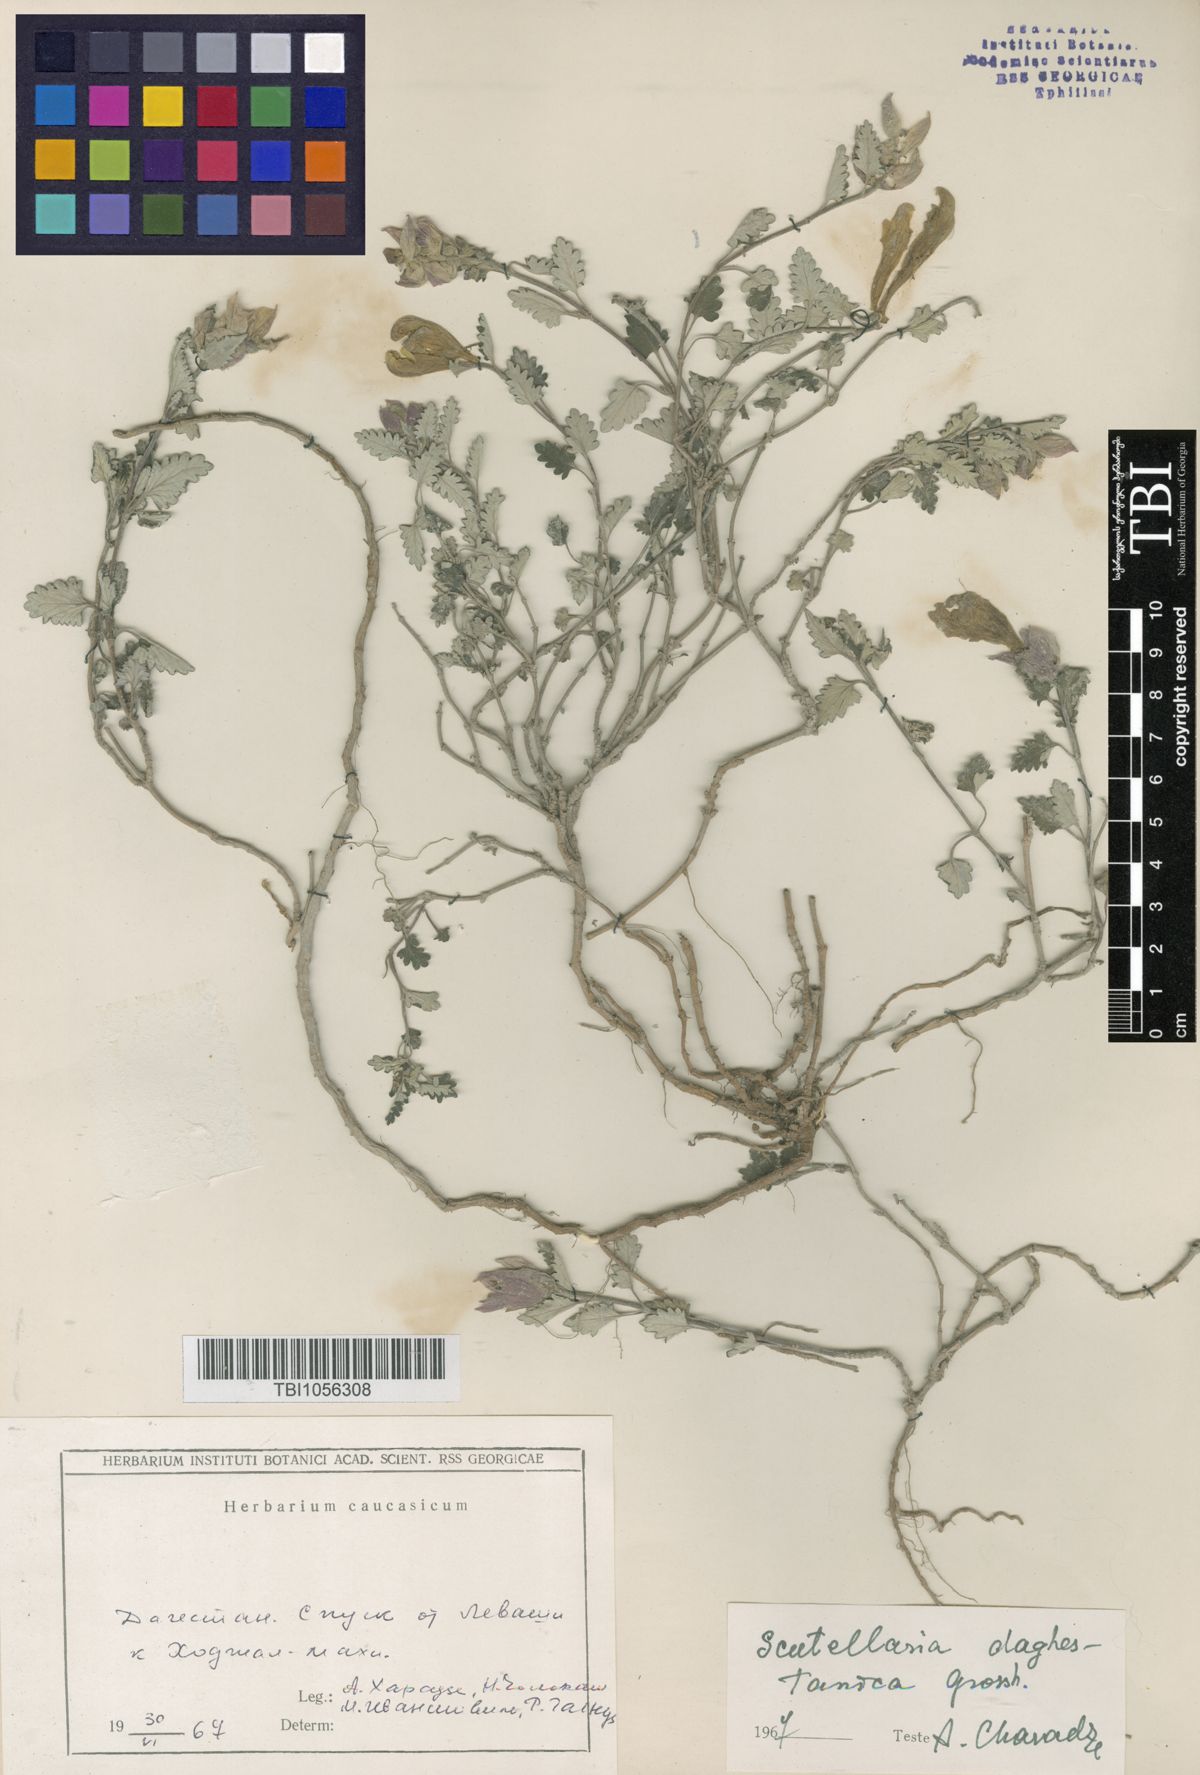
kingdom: Plantae
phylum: Tracheophyta
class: Magnoliopsida
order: Lamiales
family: Lamiaceae
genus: Scutellaria
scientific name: Scutellaria daghestanica
